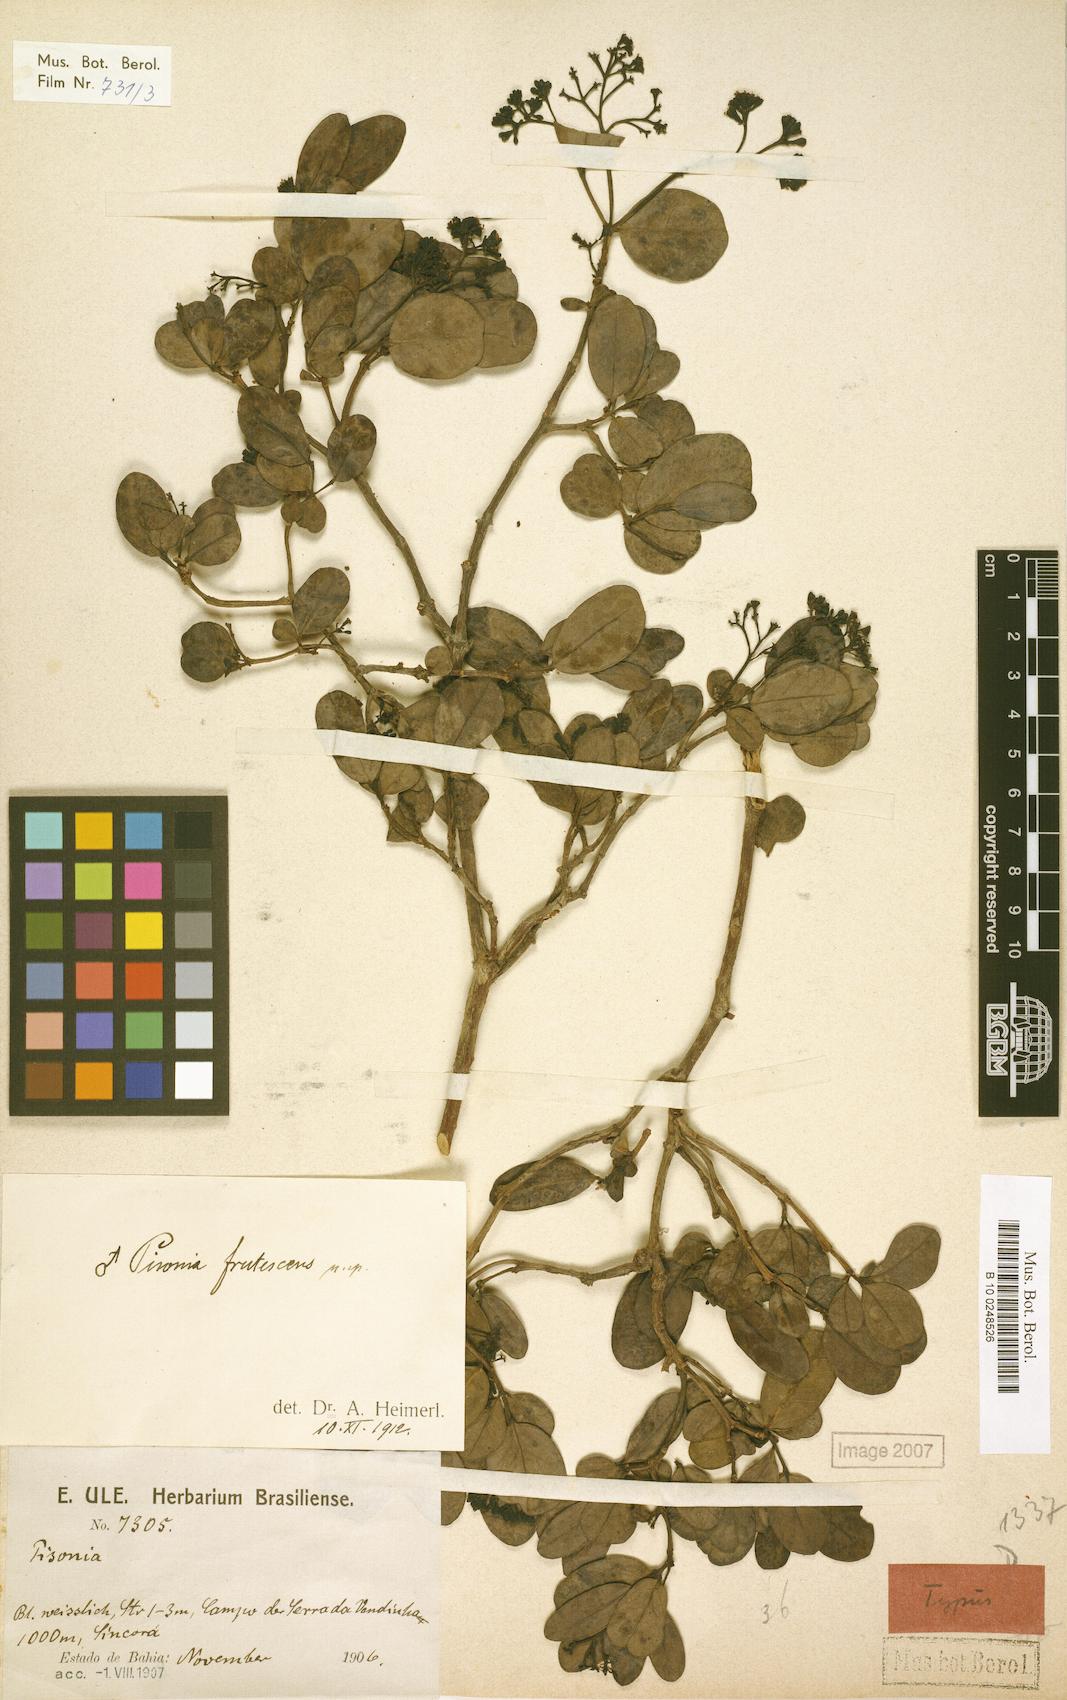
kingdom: Plantae
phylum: Tracheophyta
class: Magnoliopsida
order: Caryophyllales
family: Nyctaginaceae
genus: Pisonia
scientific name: Pisonia
